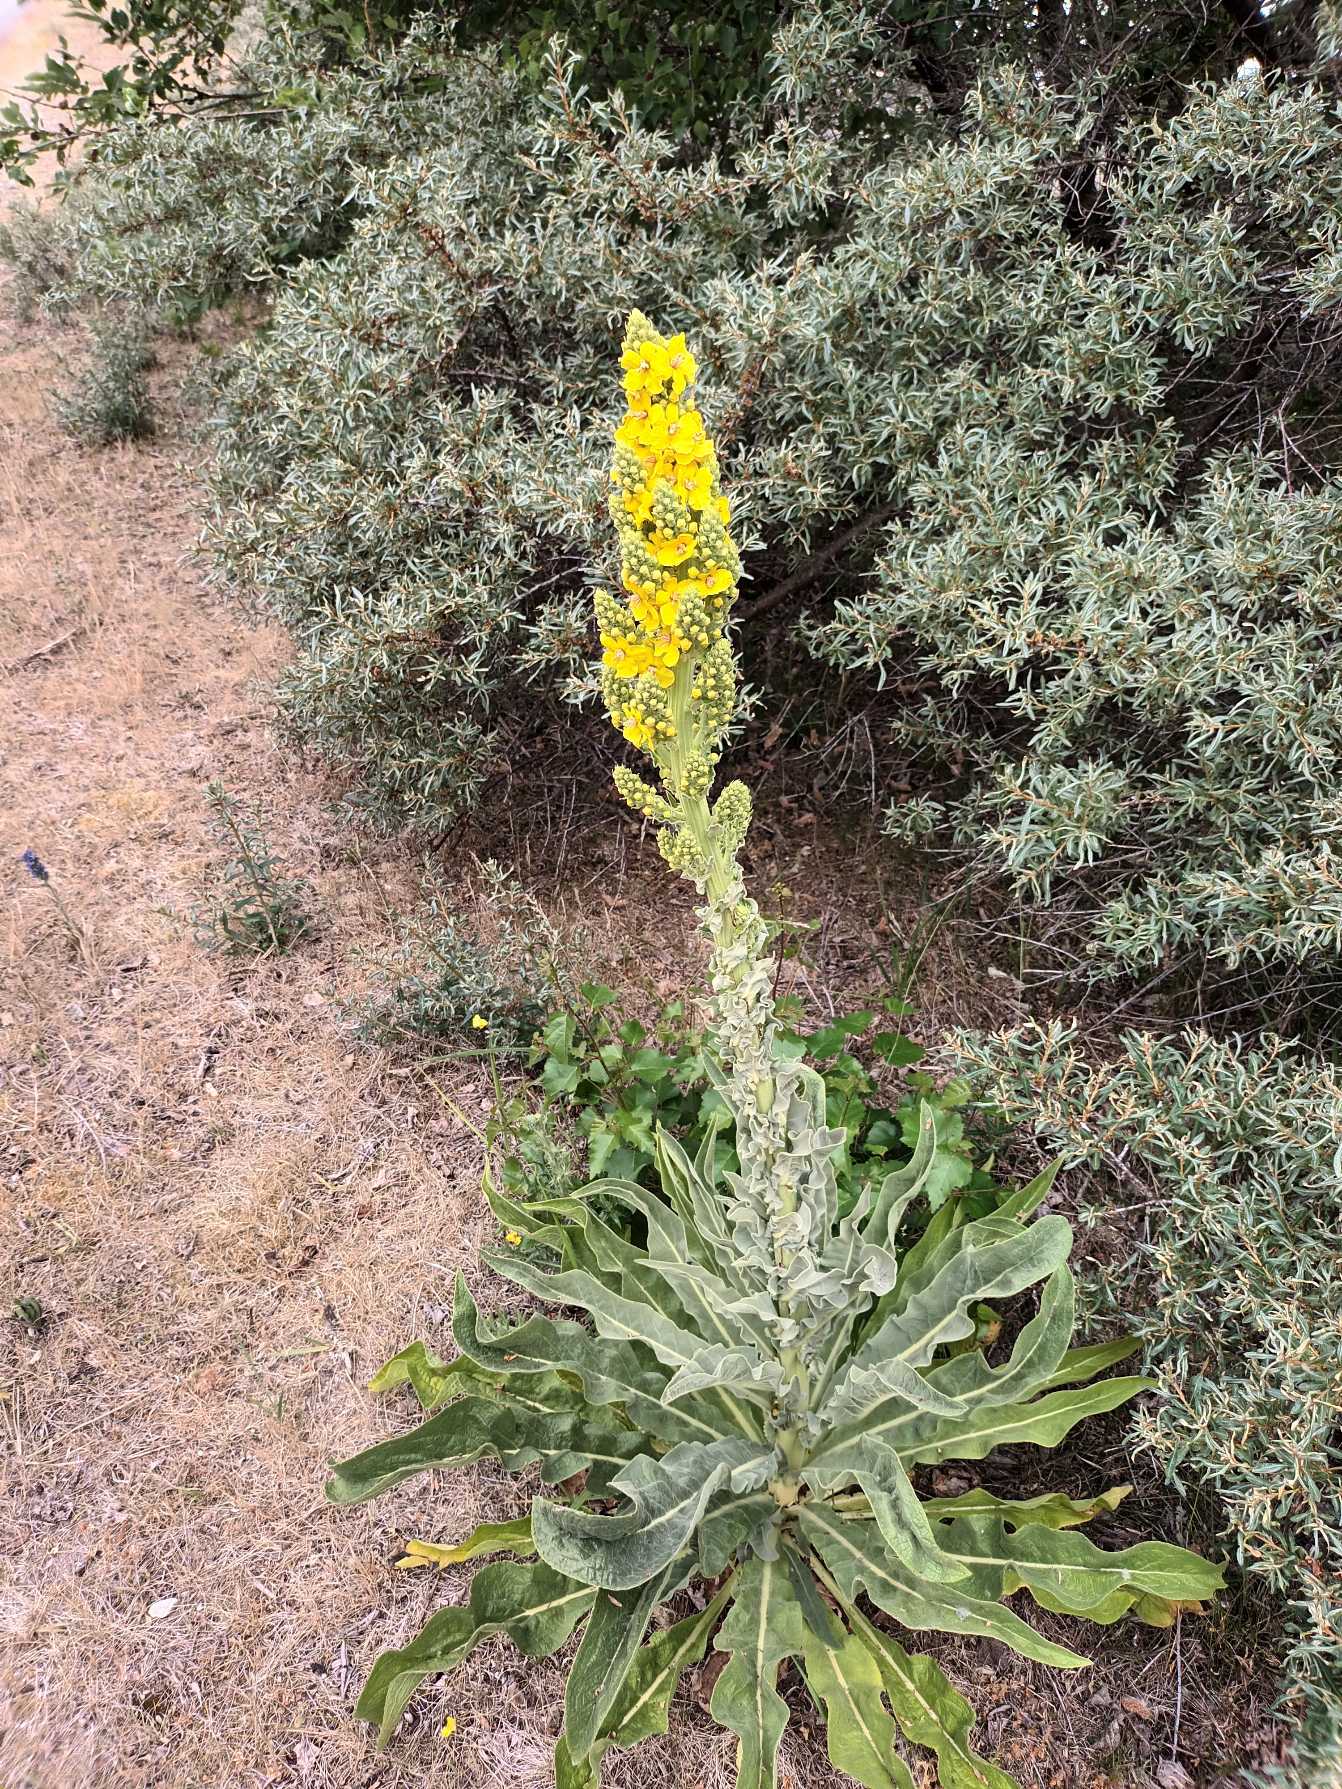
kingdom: Plantae
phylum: Tracheophyta
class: Magnoliopsida
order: Lamiales
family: Scrophulariaceae
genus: Verbascum
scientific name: Verbascum speciosum
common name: Kandelaber-kongelys
